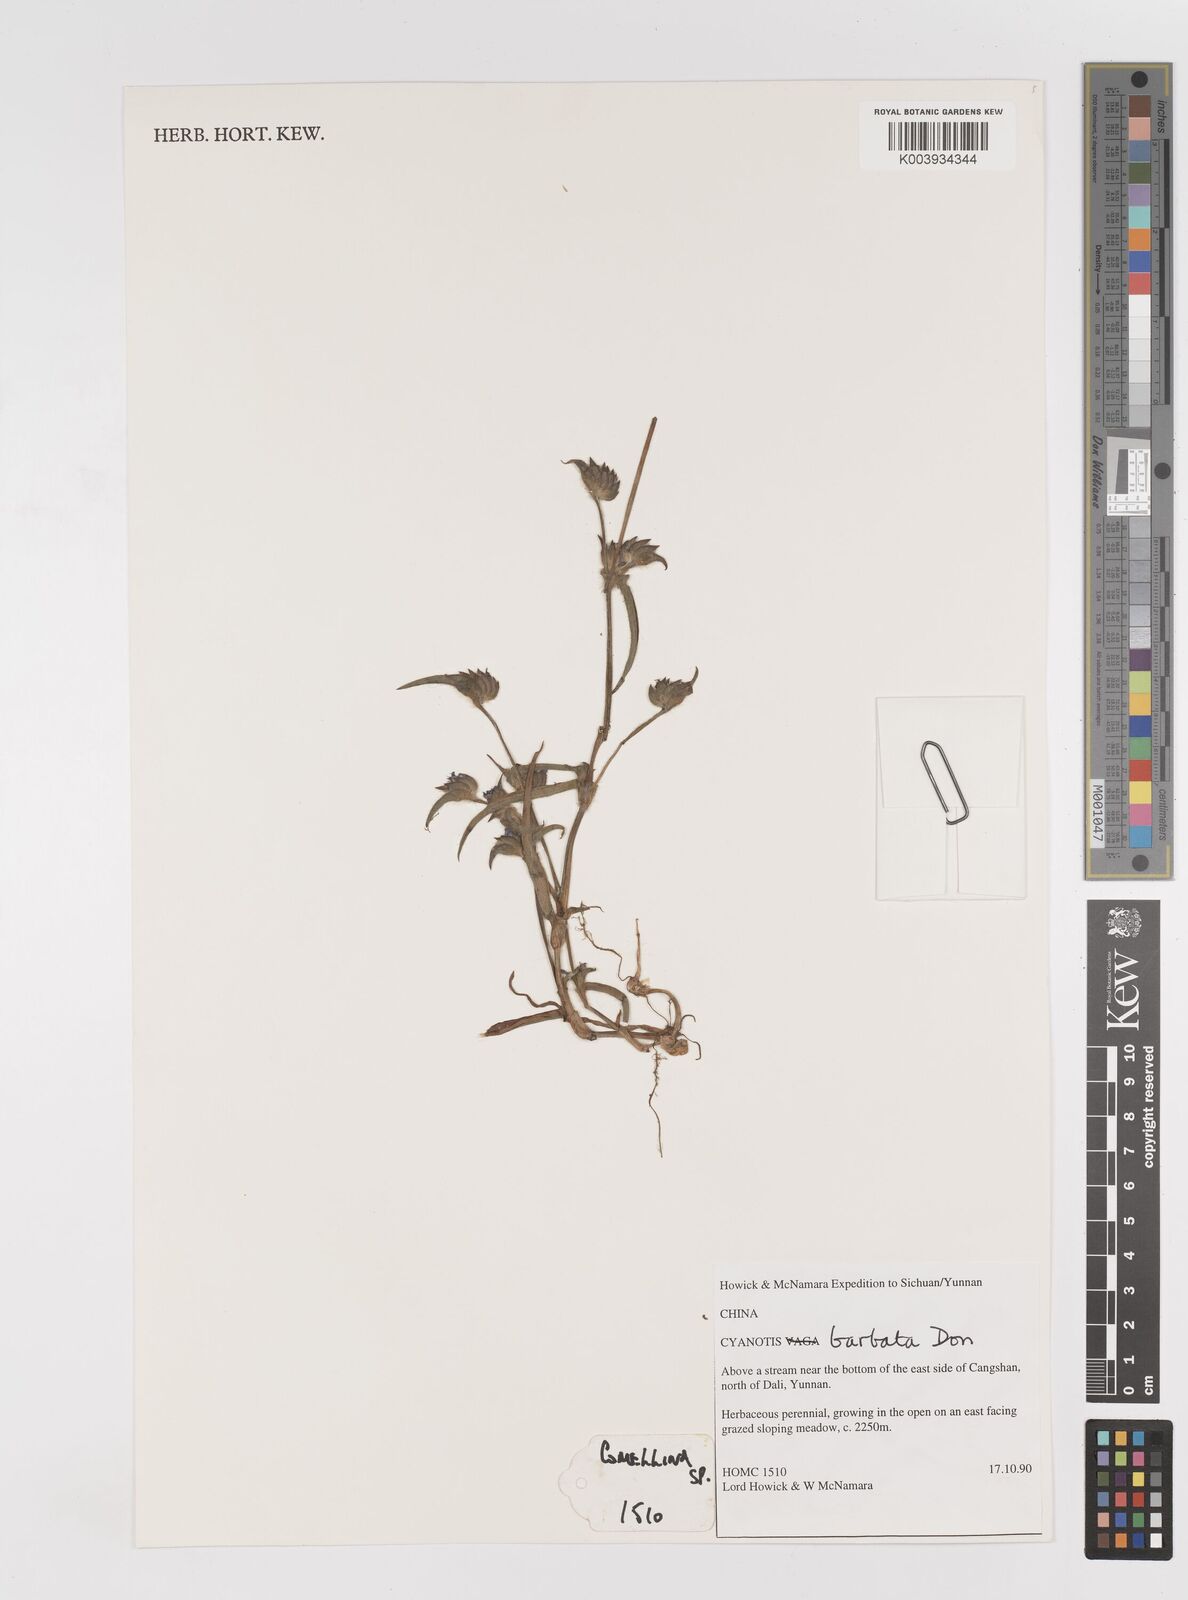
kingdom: Plantae
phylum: Tracheophyta
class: Liliopsida
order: Commelinales
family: Commelinaceae
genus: Cyanotis
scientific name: Cyanotis vaga
